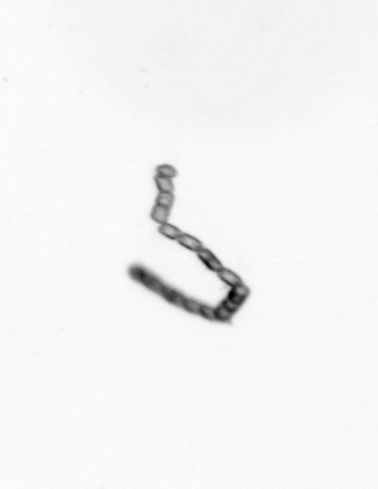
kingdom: Chromista
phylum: Ochrophyta
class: Bacillariophyceae
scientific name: Bacillariophyceae
